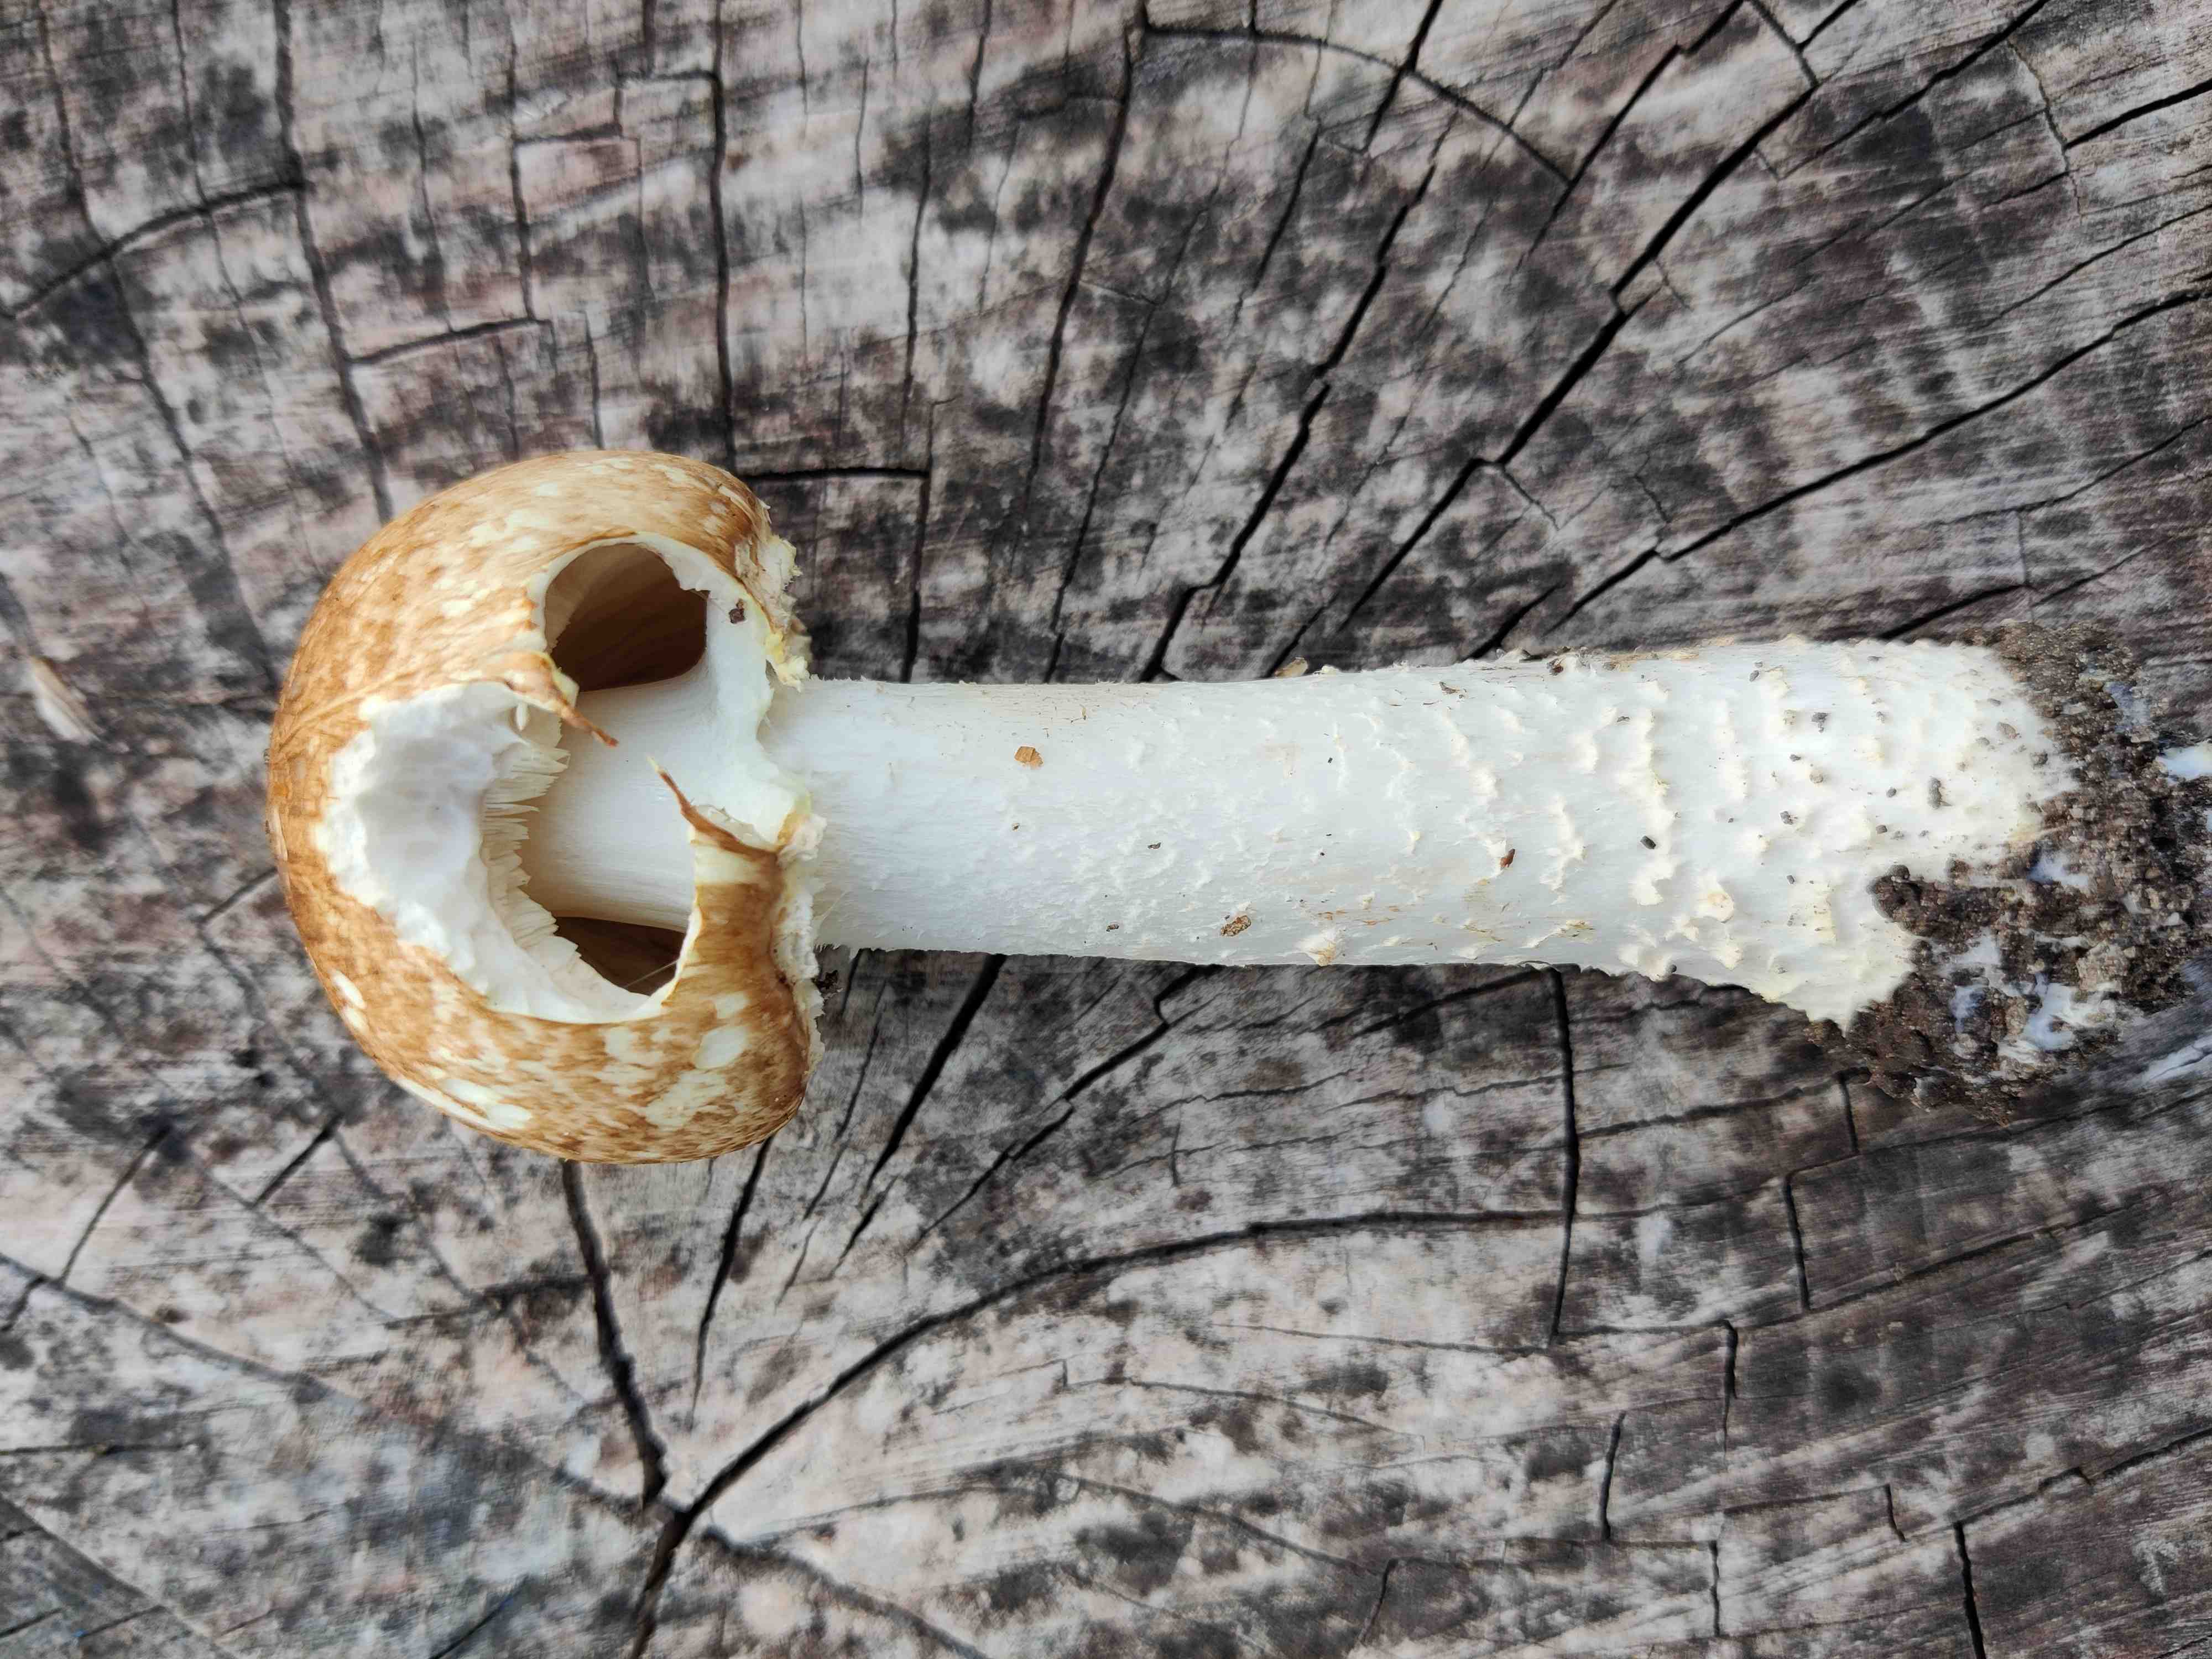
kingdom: Fungi
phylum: Basidiomycota
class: Agaricomycetes
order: Agaricales
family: Agaricaceae
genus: Agaricus
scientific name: Agaricus augustus
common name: prægtig champignon
